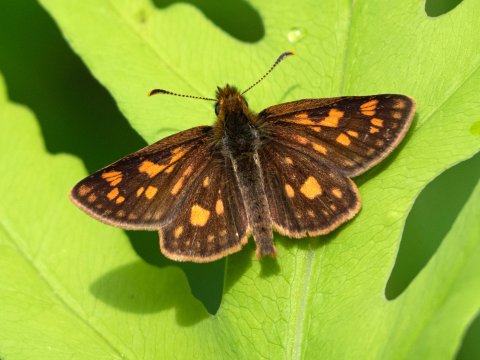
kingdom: Animalia
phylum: Arthropoda
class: Insecta
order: Lepidoptera
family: Hesperiidae
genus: Carterocephalus
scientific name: Carterocephalus palaemon
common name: Chequered Skipper
